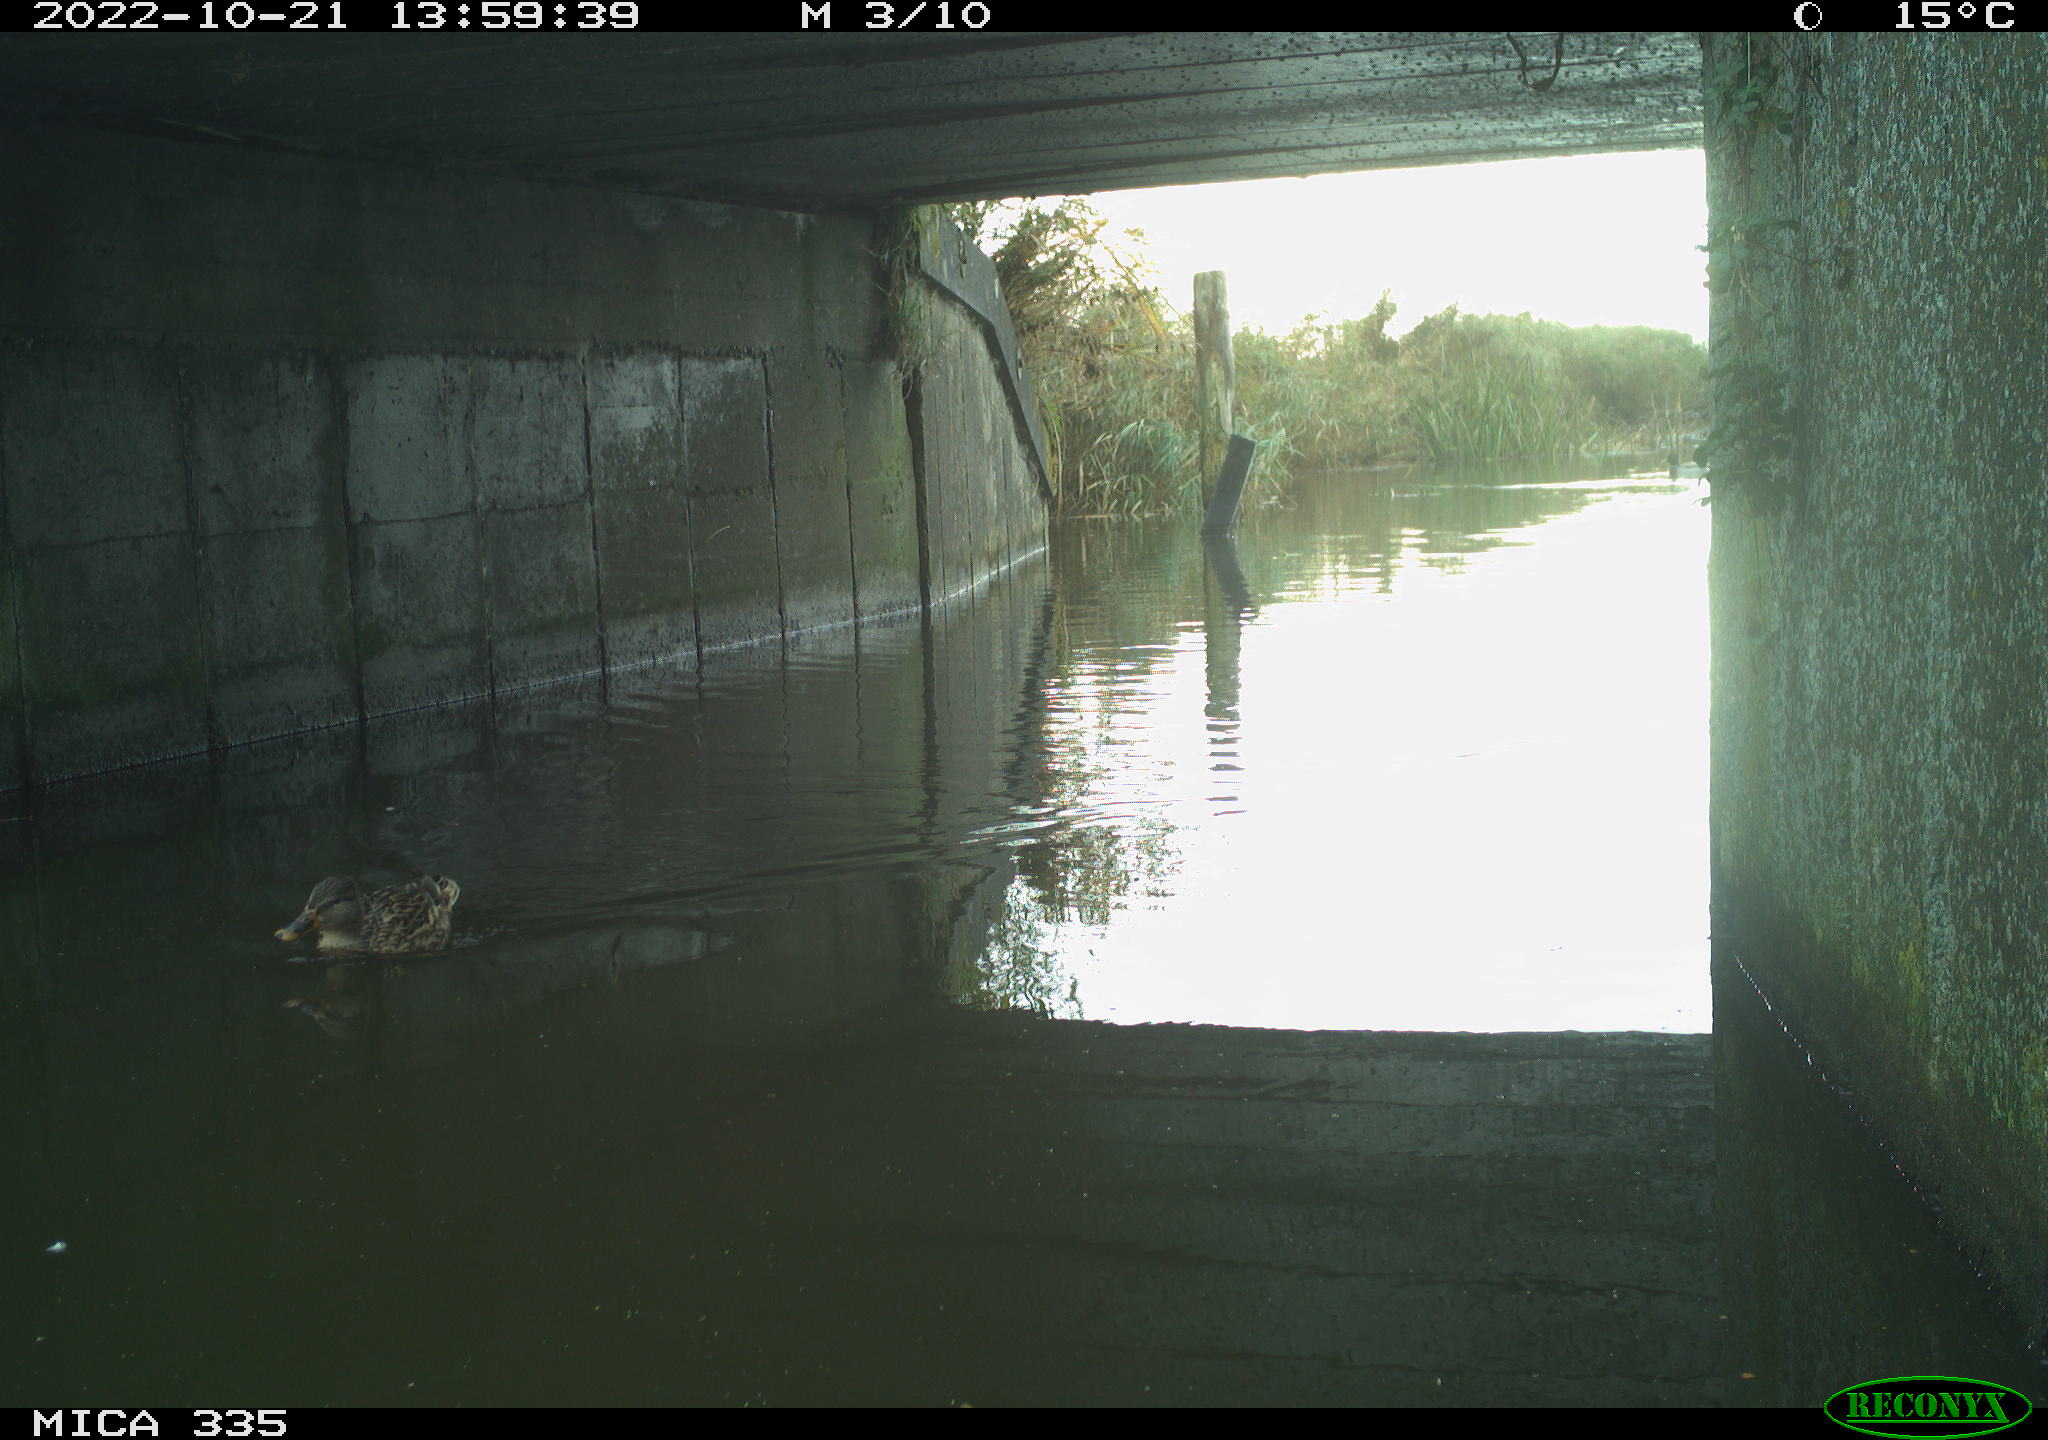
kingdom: Animalia
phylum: Chordata
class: Aves
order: Anseriformes
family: Anatidae
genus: Anas
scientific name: Anas platyrhynchos
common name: Mallard
